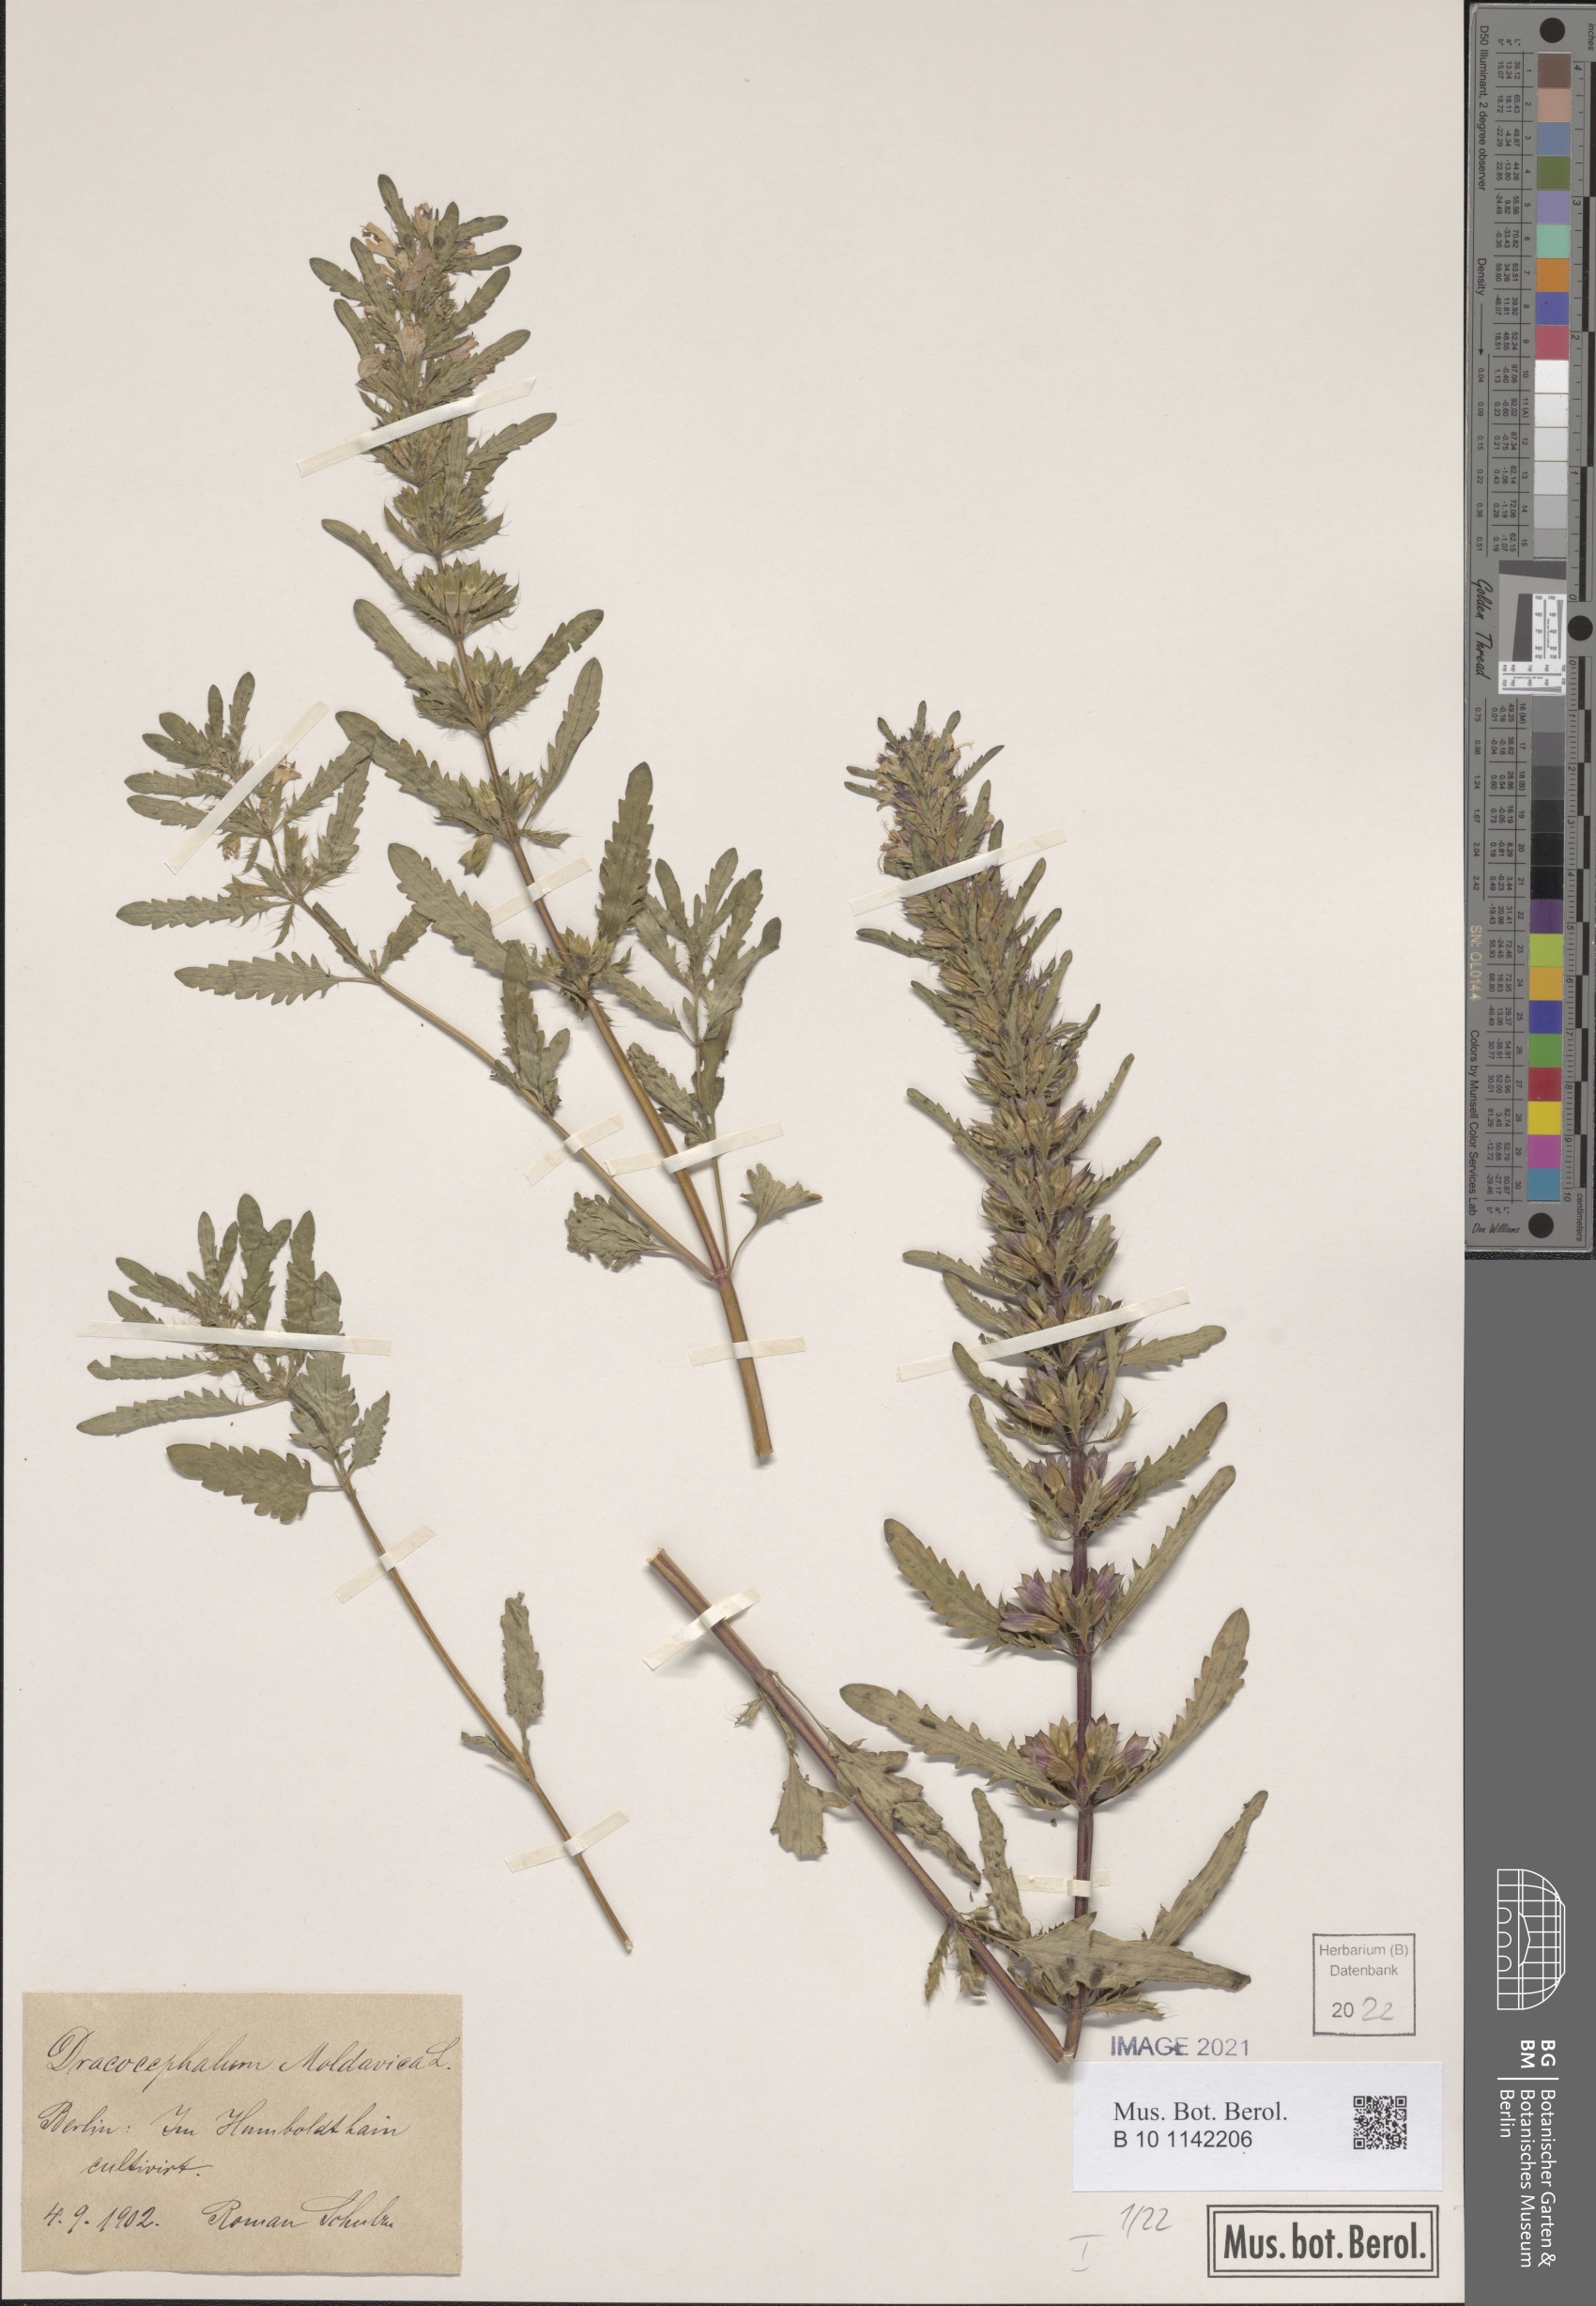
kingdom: Plantae
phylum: Tracheophyta
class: Magnoliopsida
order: Lamiales
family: Lamiaceae
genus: Dracocephalum
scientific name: Dracocephalum moldavica
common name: Moldavian dragonhead
